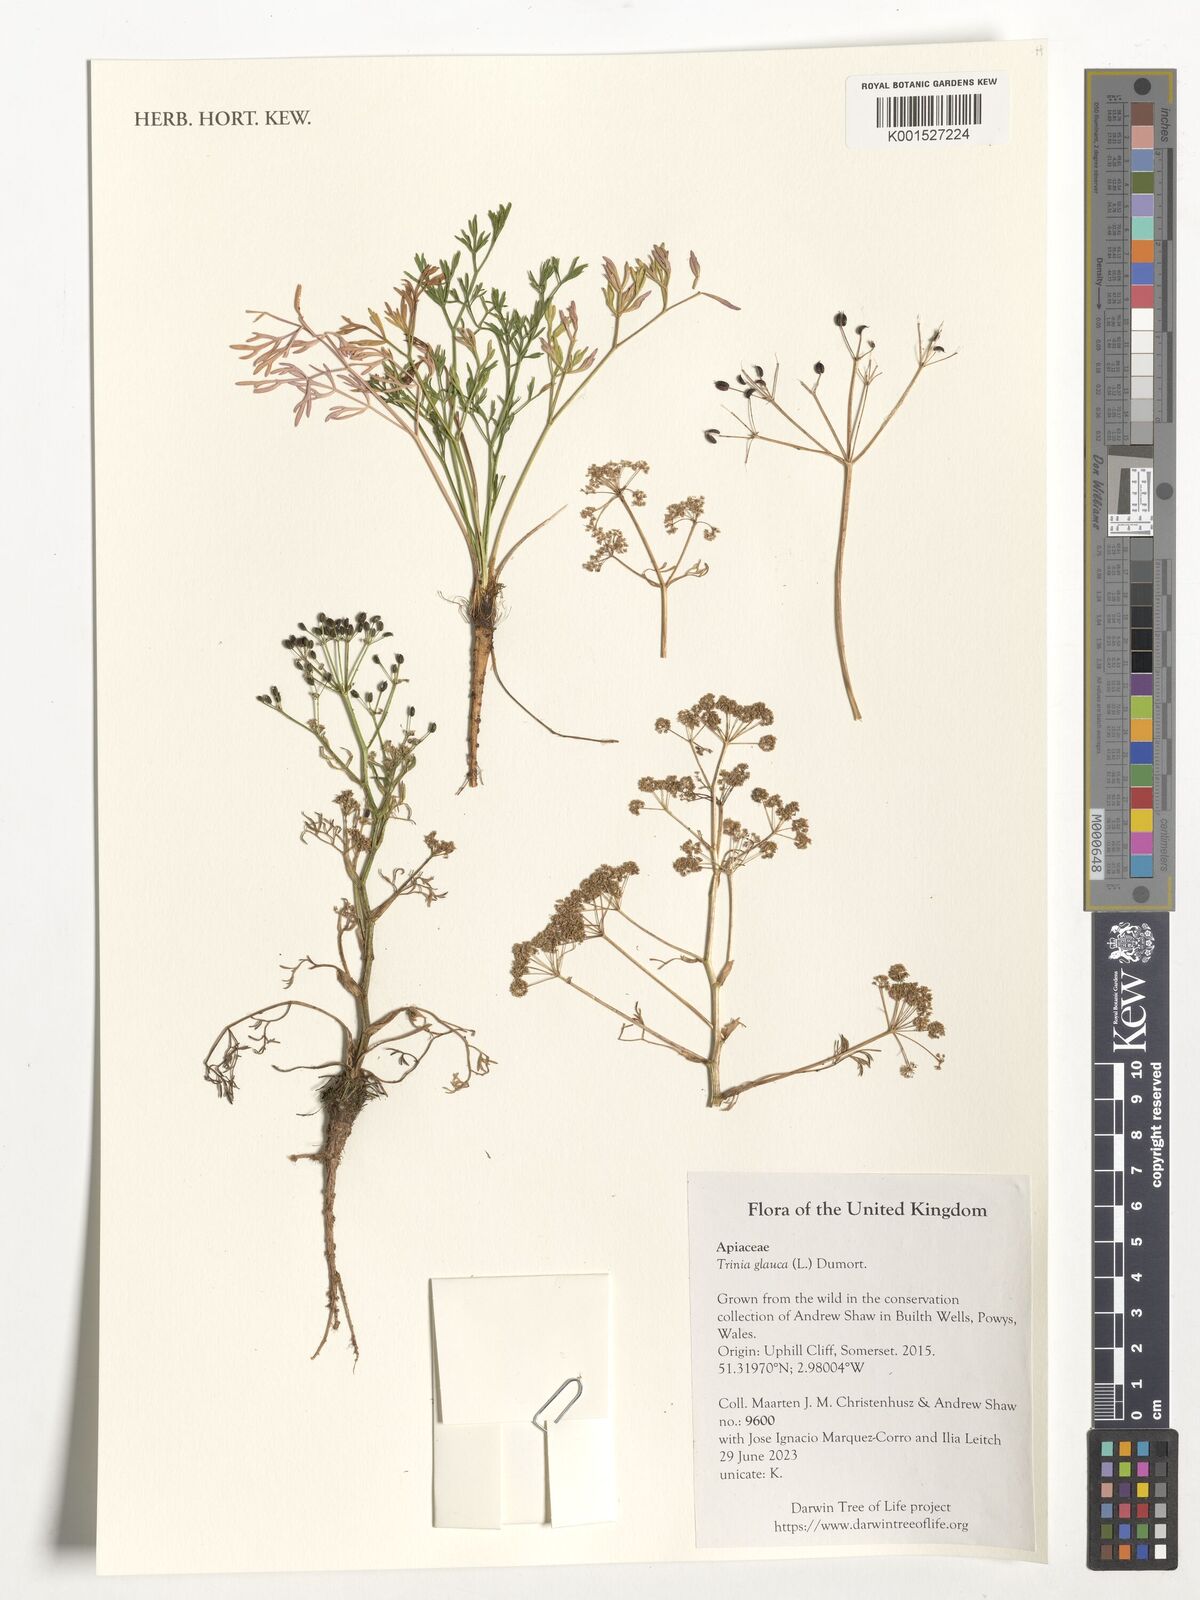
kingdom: Plantae
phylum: Tracheophyta
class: Magnoliopsida
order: Apiales
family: Apiaceae
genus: Trinia
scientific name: Trinia glauca
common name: Honewort
